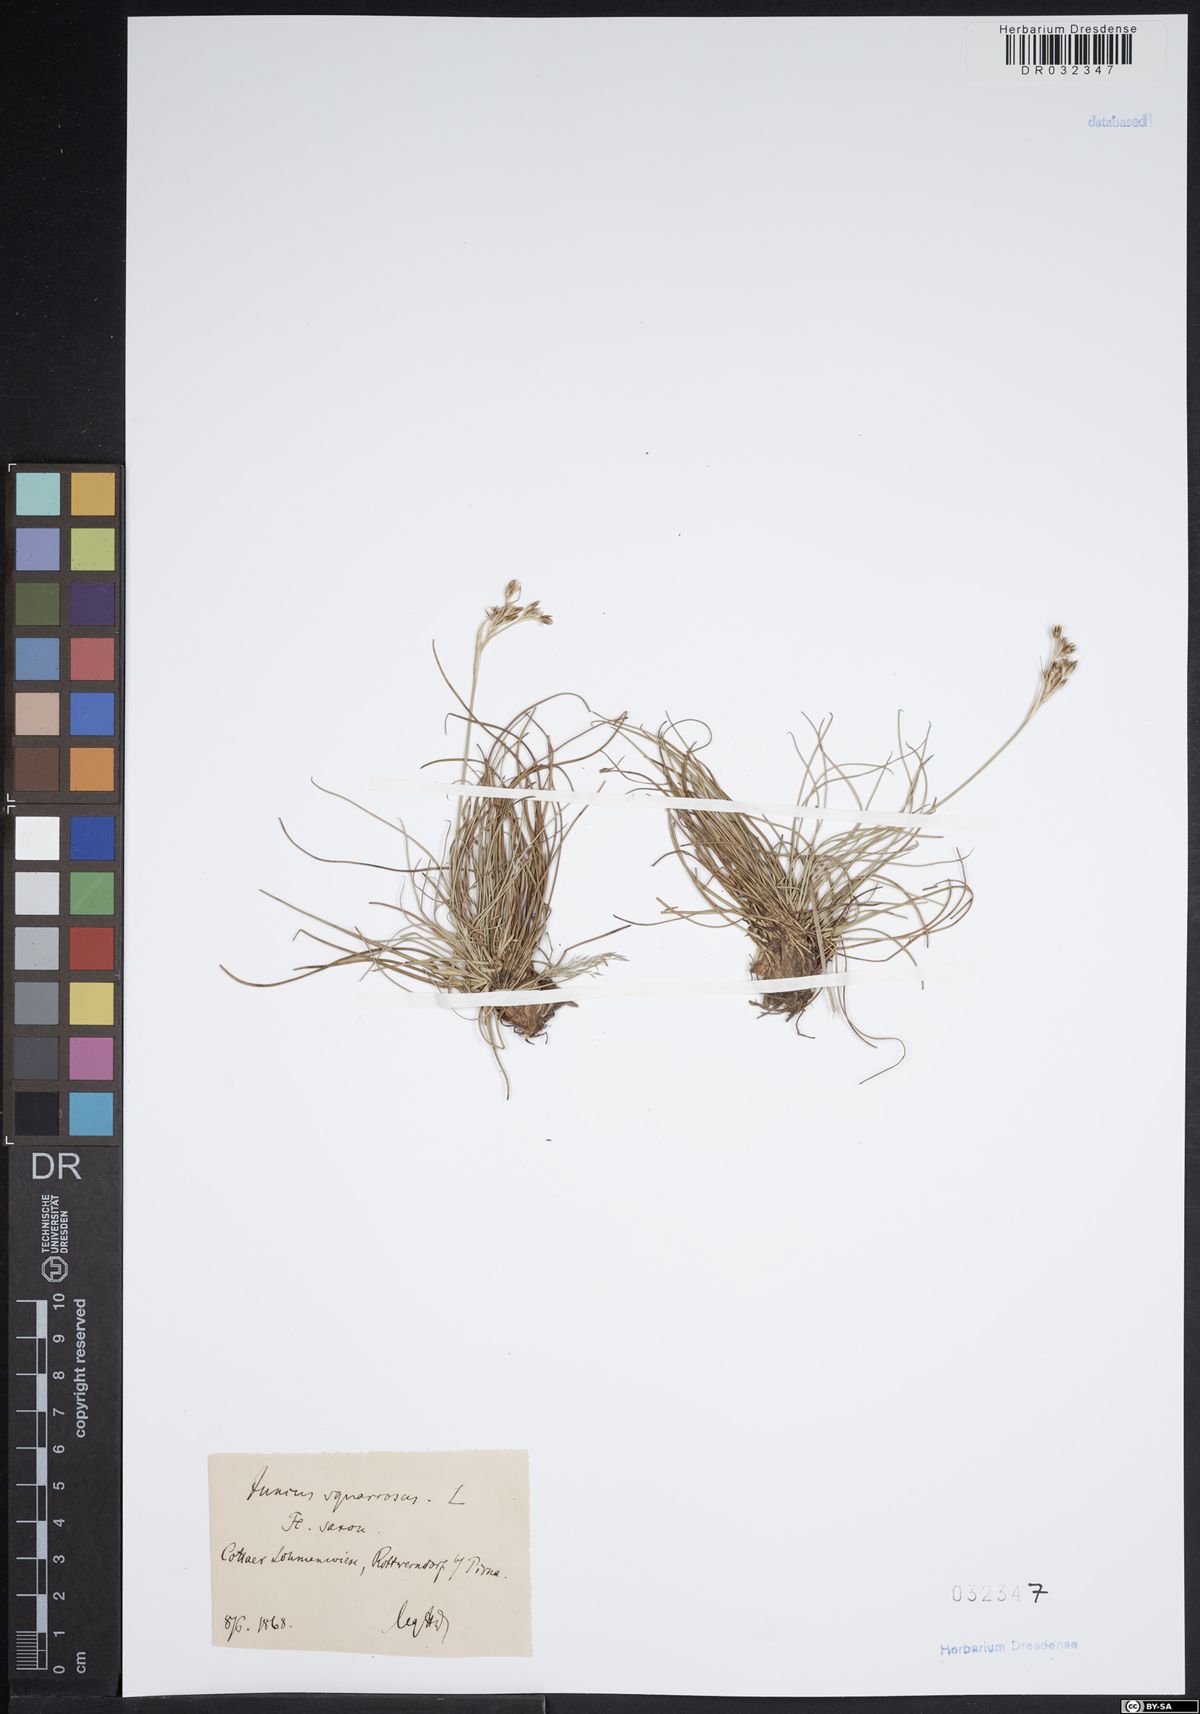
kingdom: Plantae
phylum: Tracheophyta
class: Liliopsida
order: Poales
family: Juncaceae
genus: Juncus
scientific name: Juncus squarrosus
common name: Heath rush
